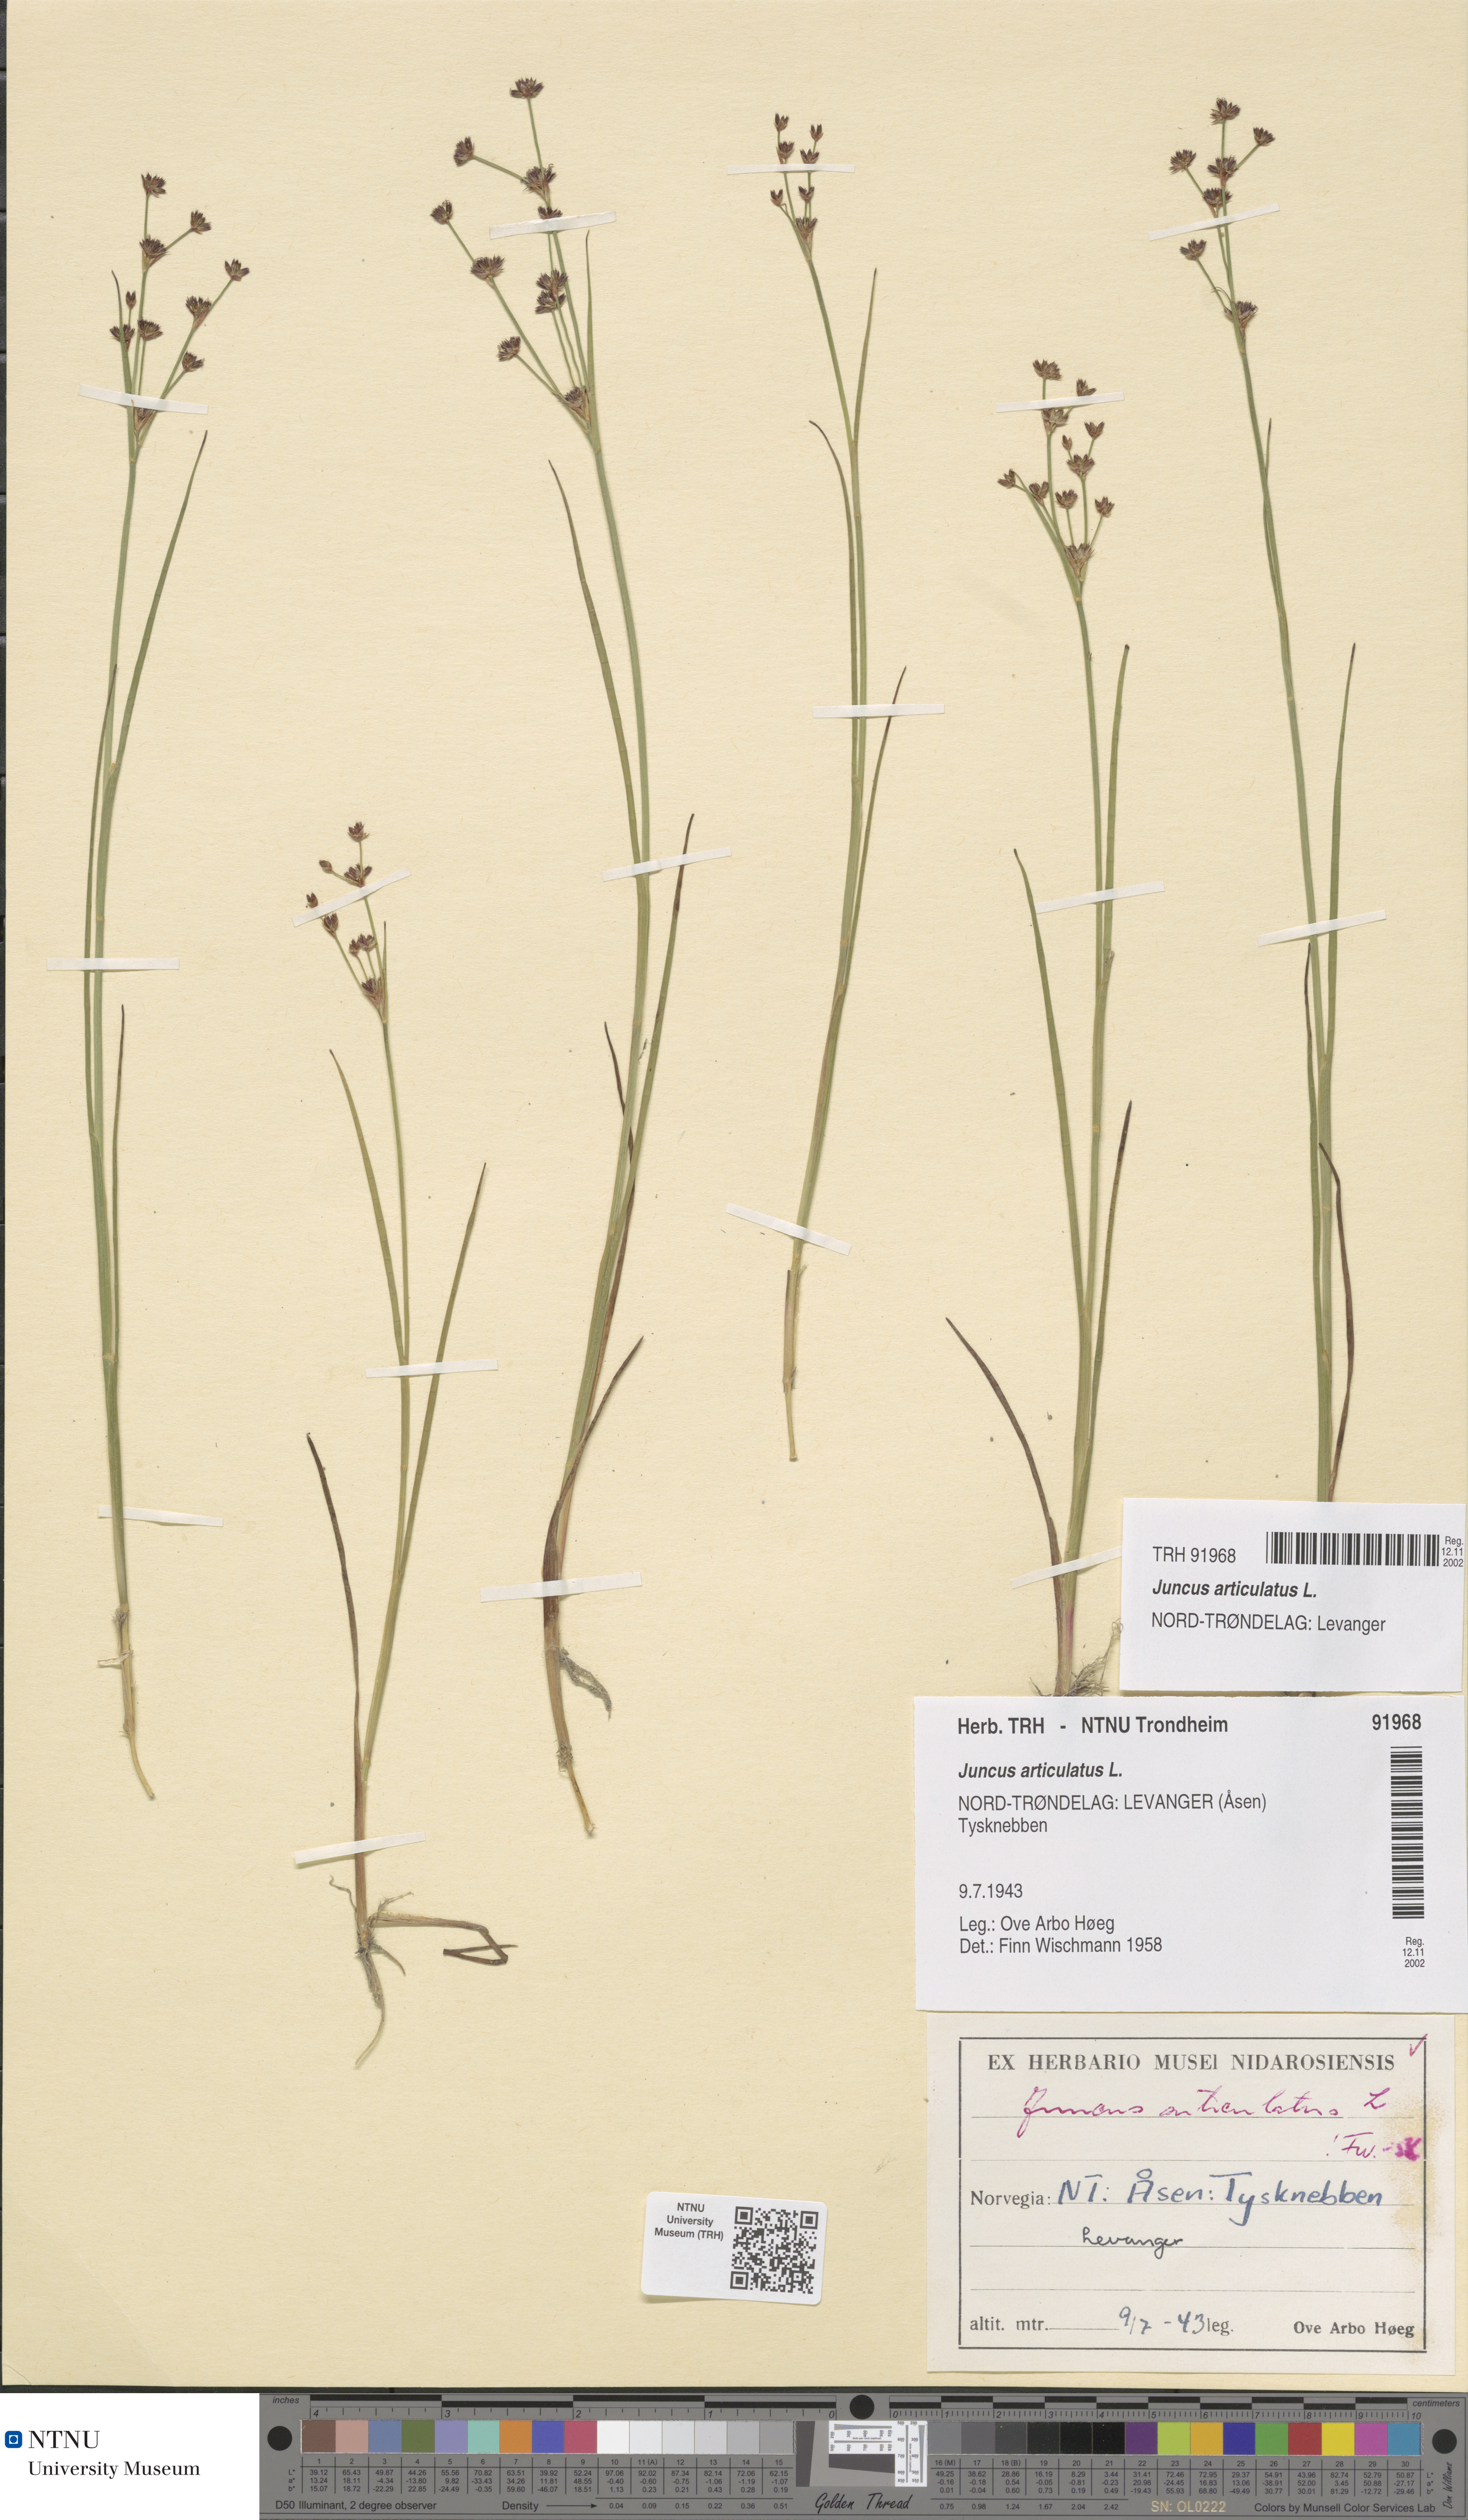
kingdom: Plantae
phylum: Tracheophyta
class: Liliopsida
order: Poales
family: Juncaceae
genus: Juncus
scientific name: Juncus articulatus
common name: Jointed rush
